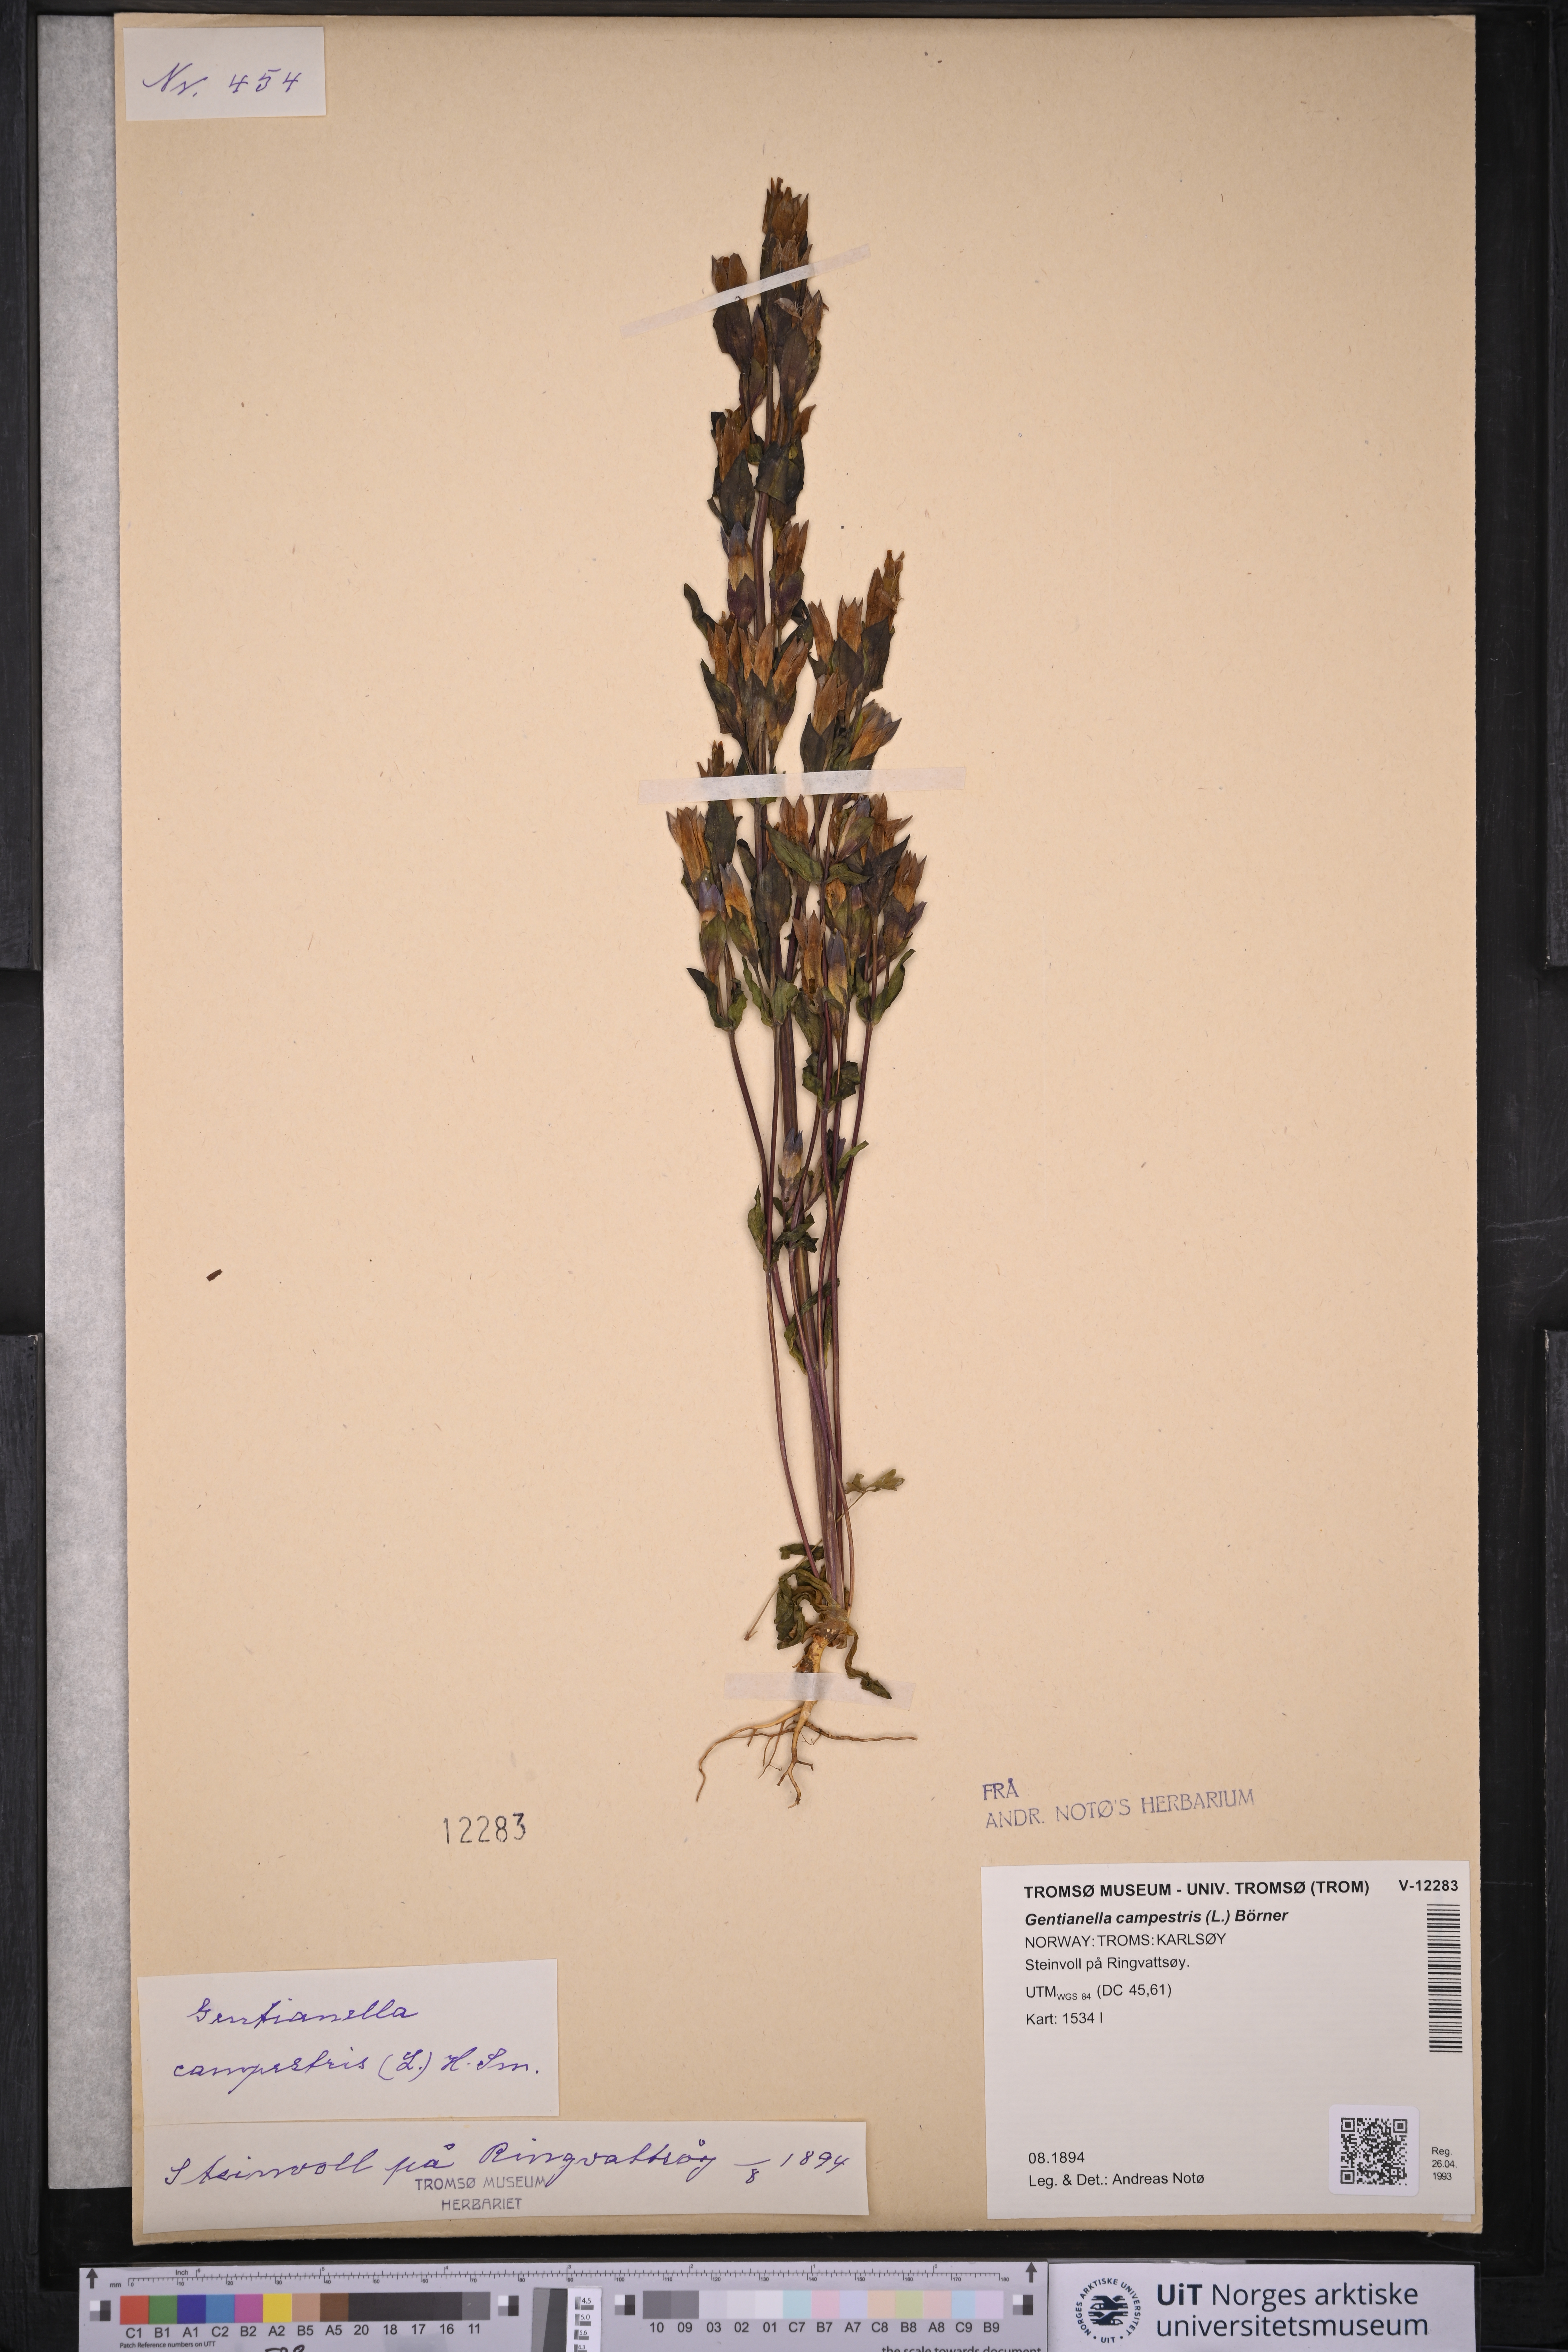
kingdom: Plantae
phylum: Tracheophyta
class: Magnoliopsida
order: Gentianales
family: Gentianaceae
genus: Gentianella
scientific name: Gentianella campestris
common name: Field gentian
